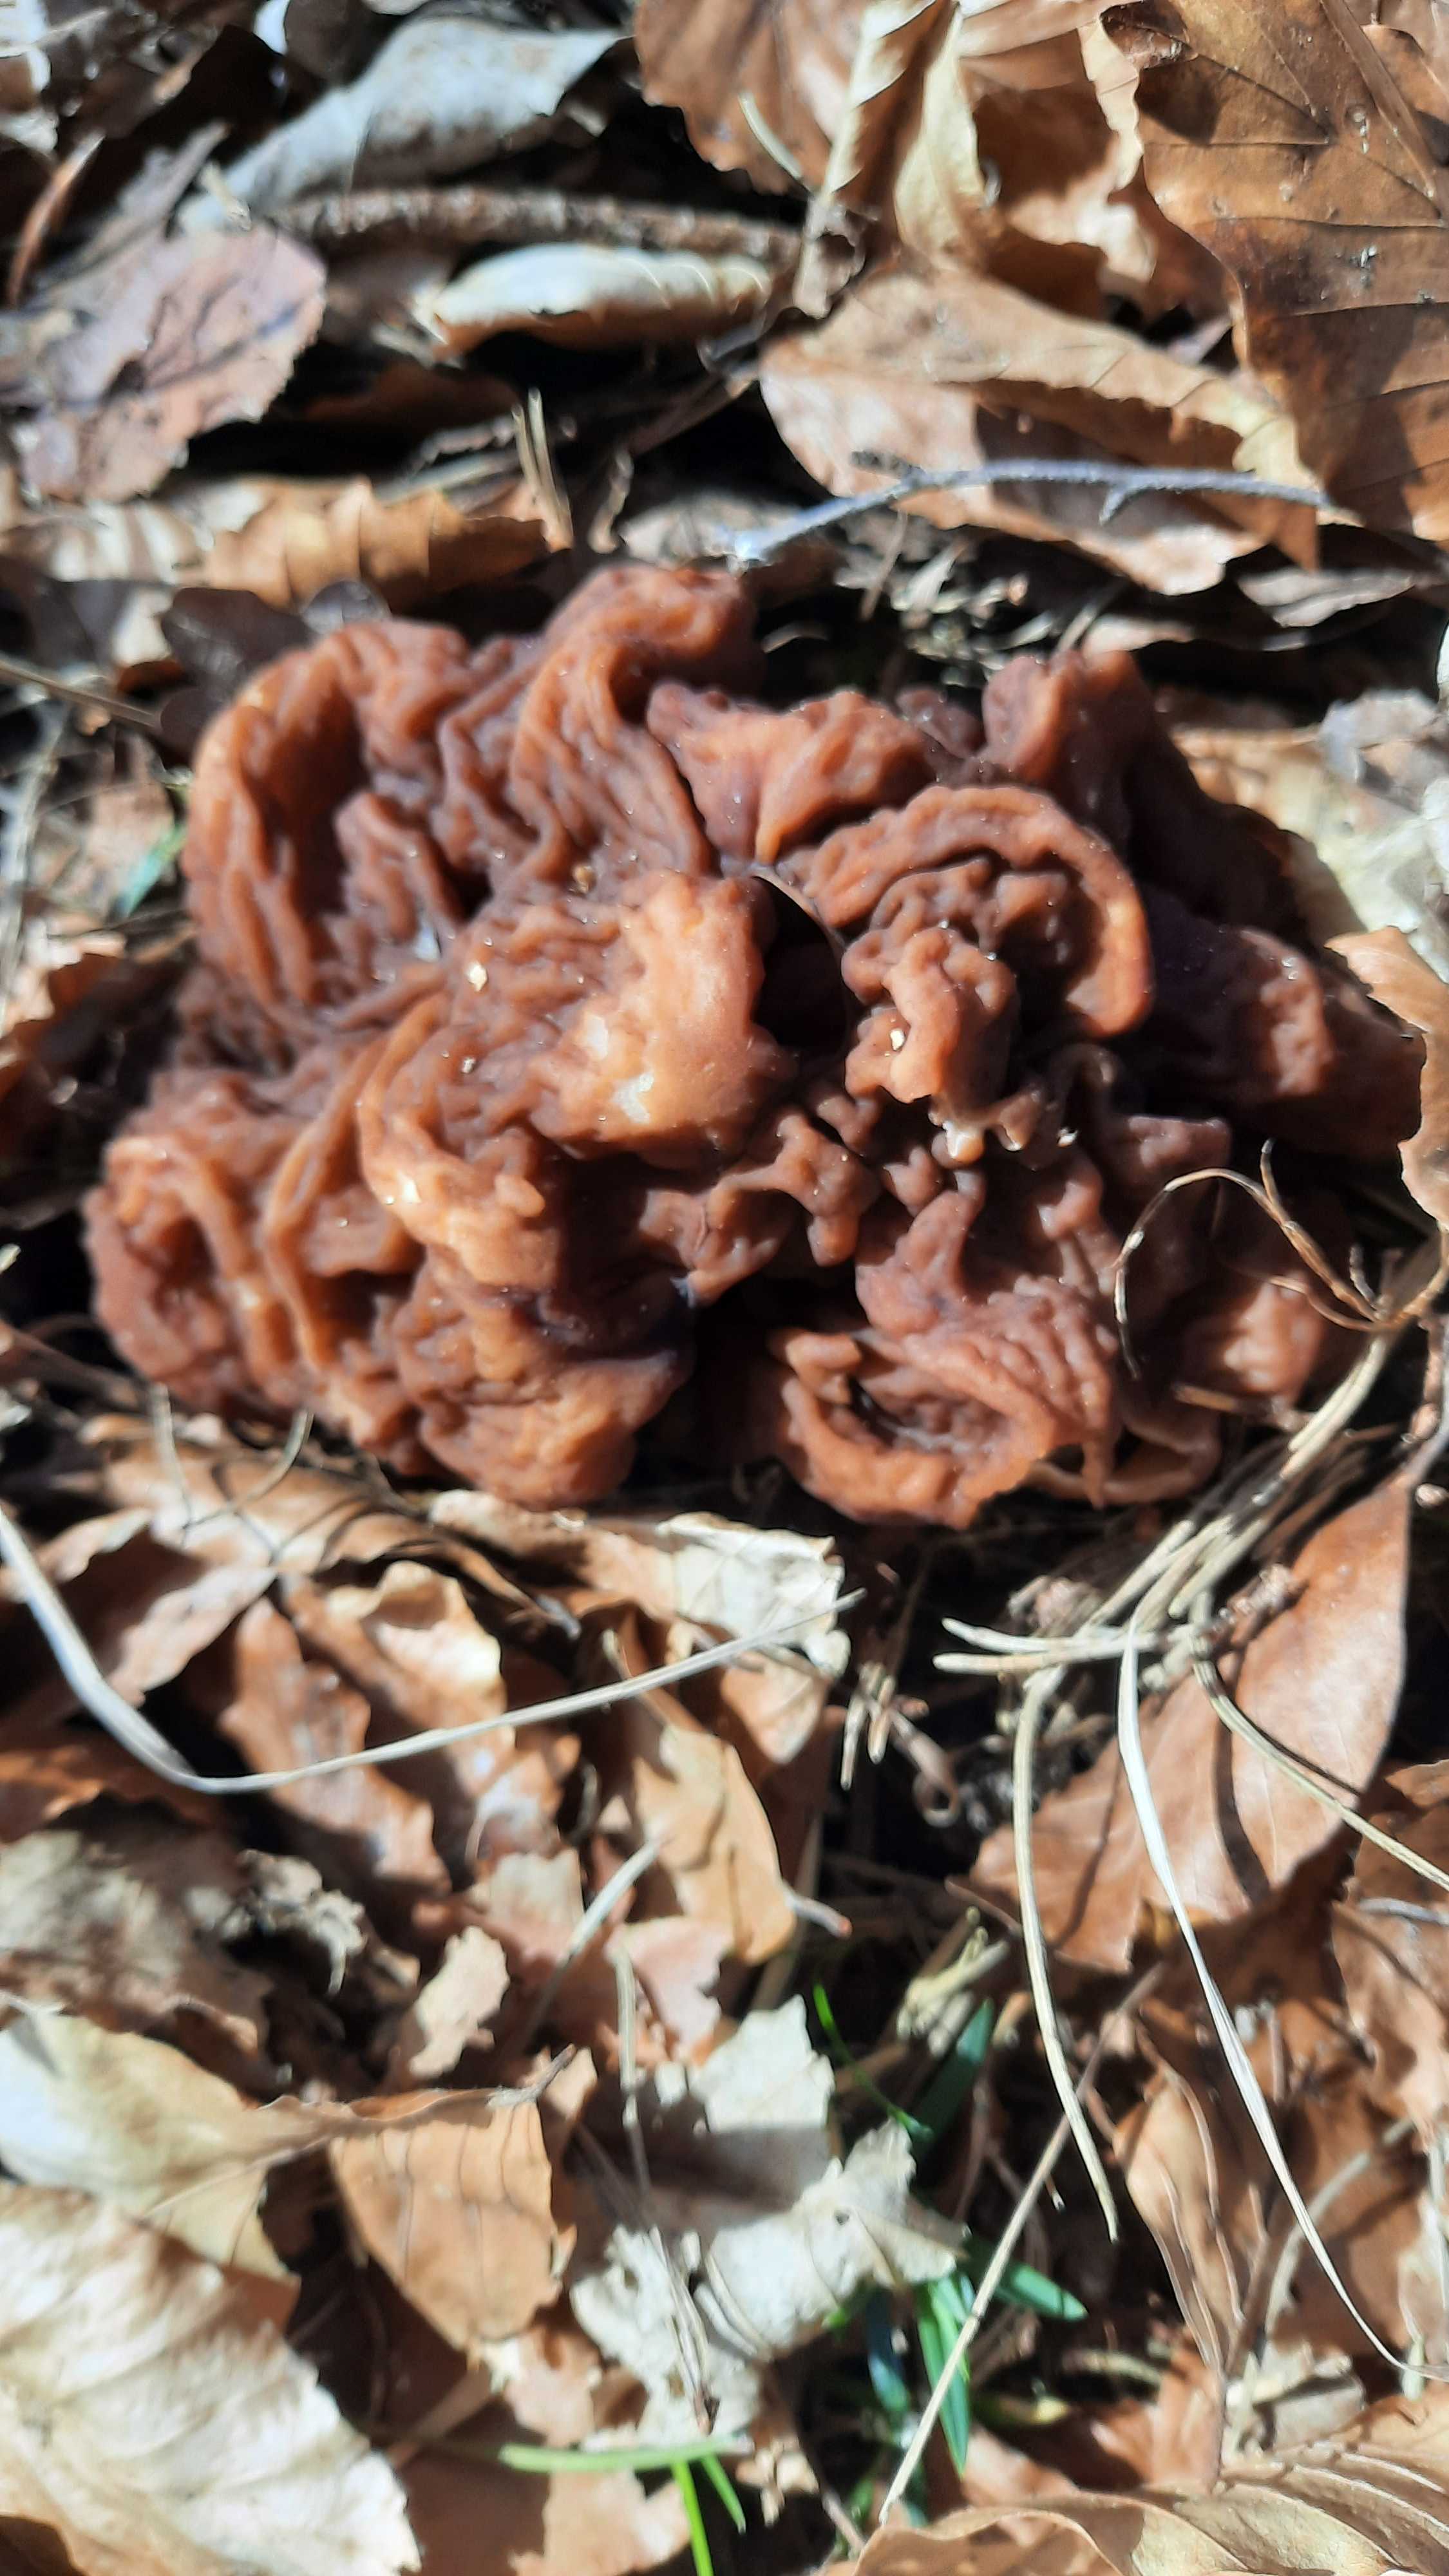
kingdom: Fungi
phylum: Ascomycota
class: Pezizomycetes
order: Pezizales
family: Discinaceae
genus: Gyromitra
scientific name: Gyromitra esculenta
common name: ægte stenmorkel
